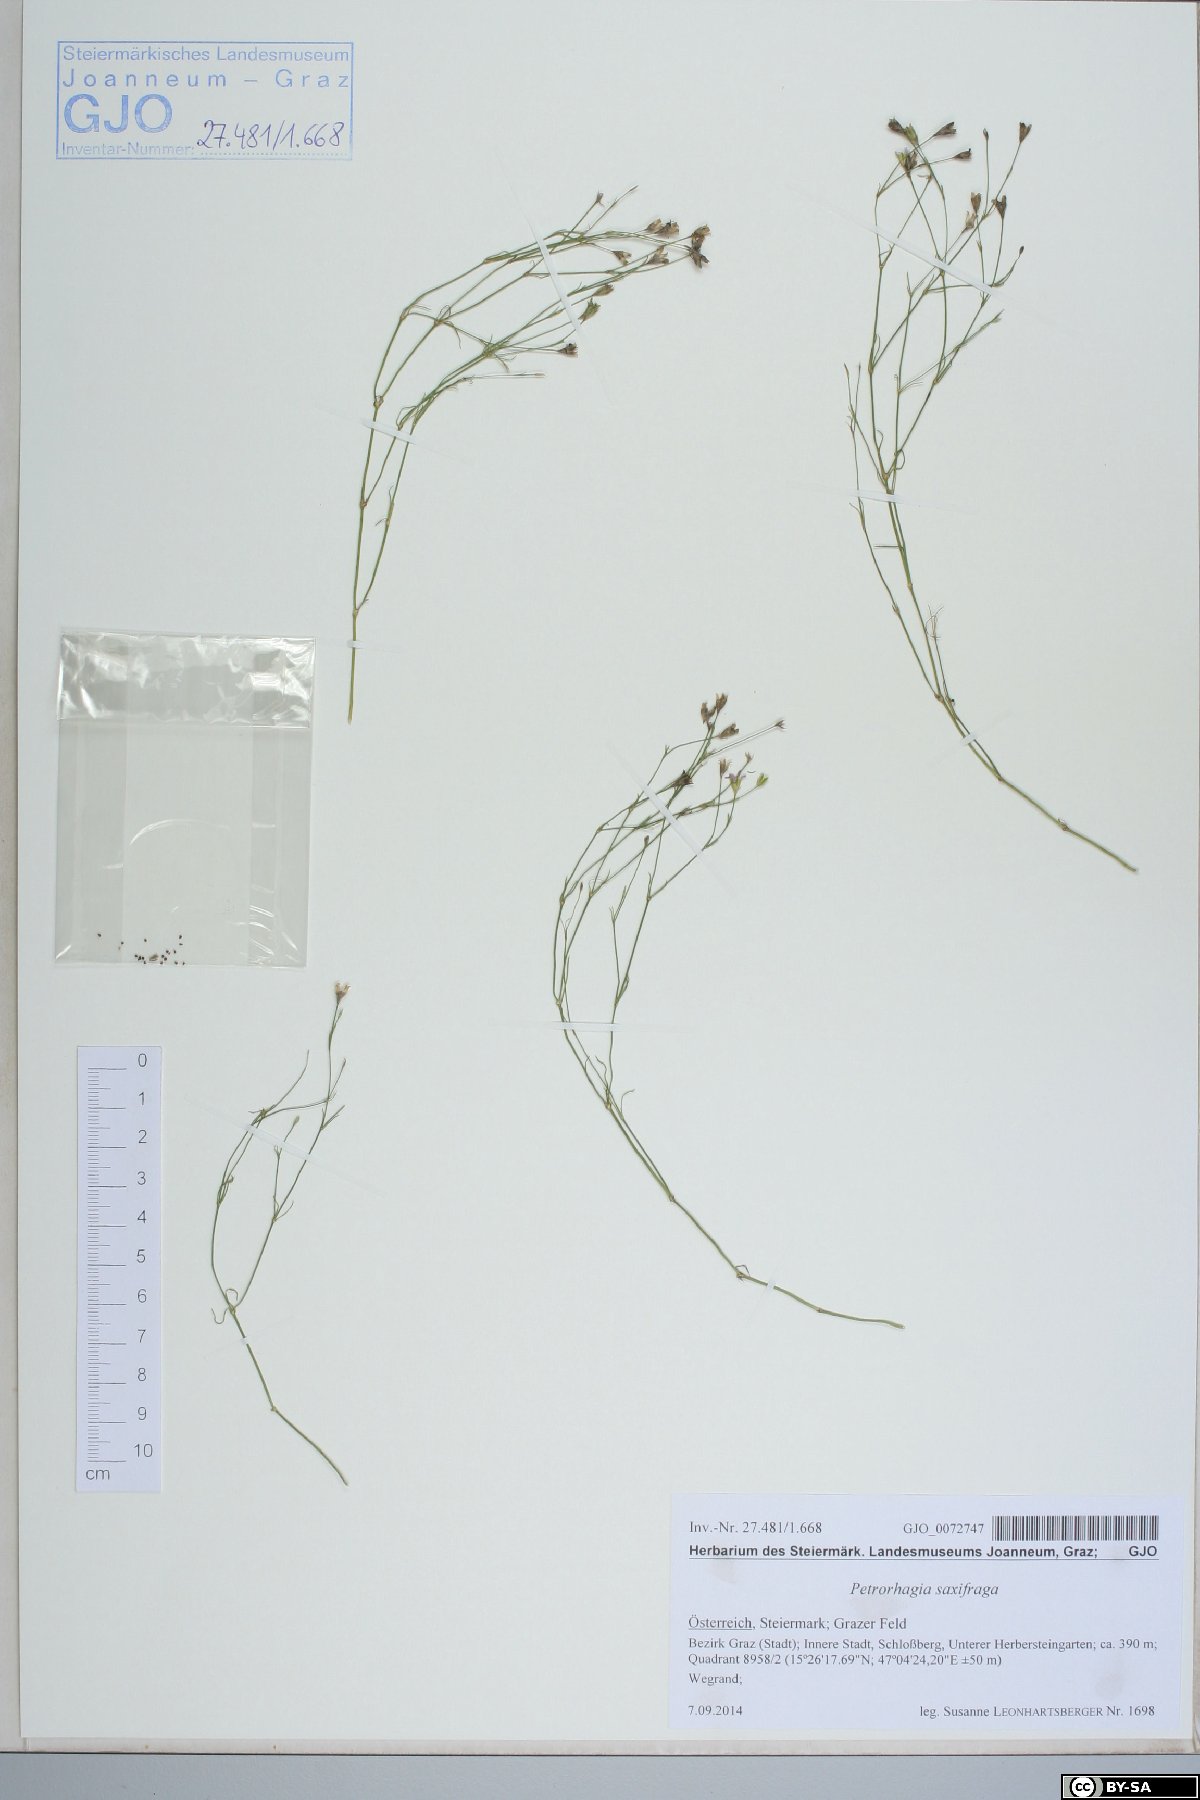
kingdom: Plantae
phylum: Tracheophyta
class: Magnoliopsida
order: Caryophyllales
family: Caryophyllaceae
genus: Petrorhagia
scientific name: Petrorhagia saxifraga
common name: Tunicflower
